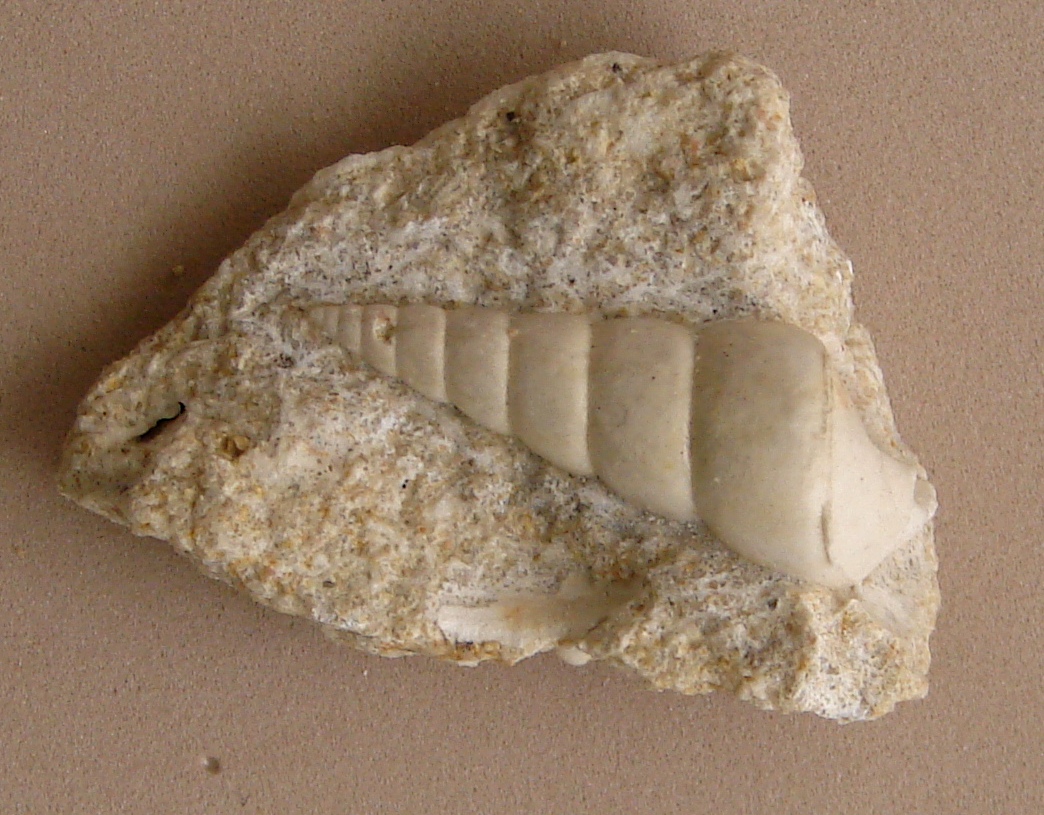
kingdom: Animalia
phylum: Mollusca
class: Gastropoda
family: Pseudomelaniidae
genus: Bourgetia
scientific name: Bourgetia Turritella deshayesea
